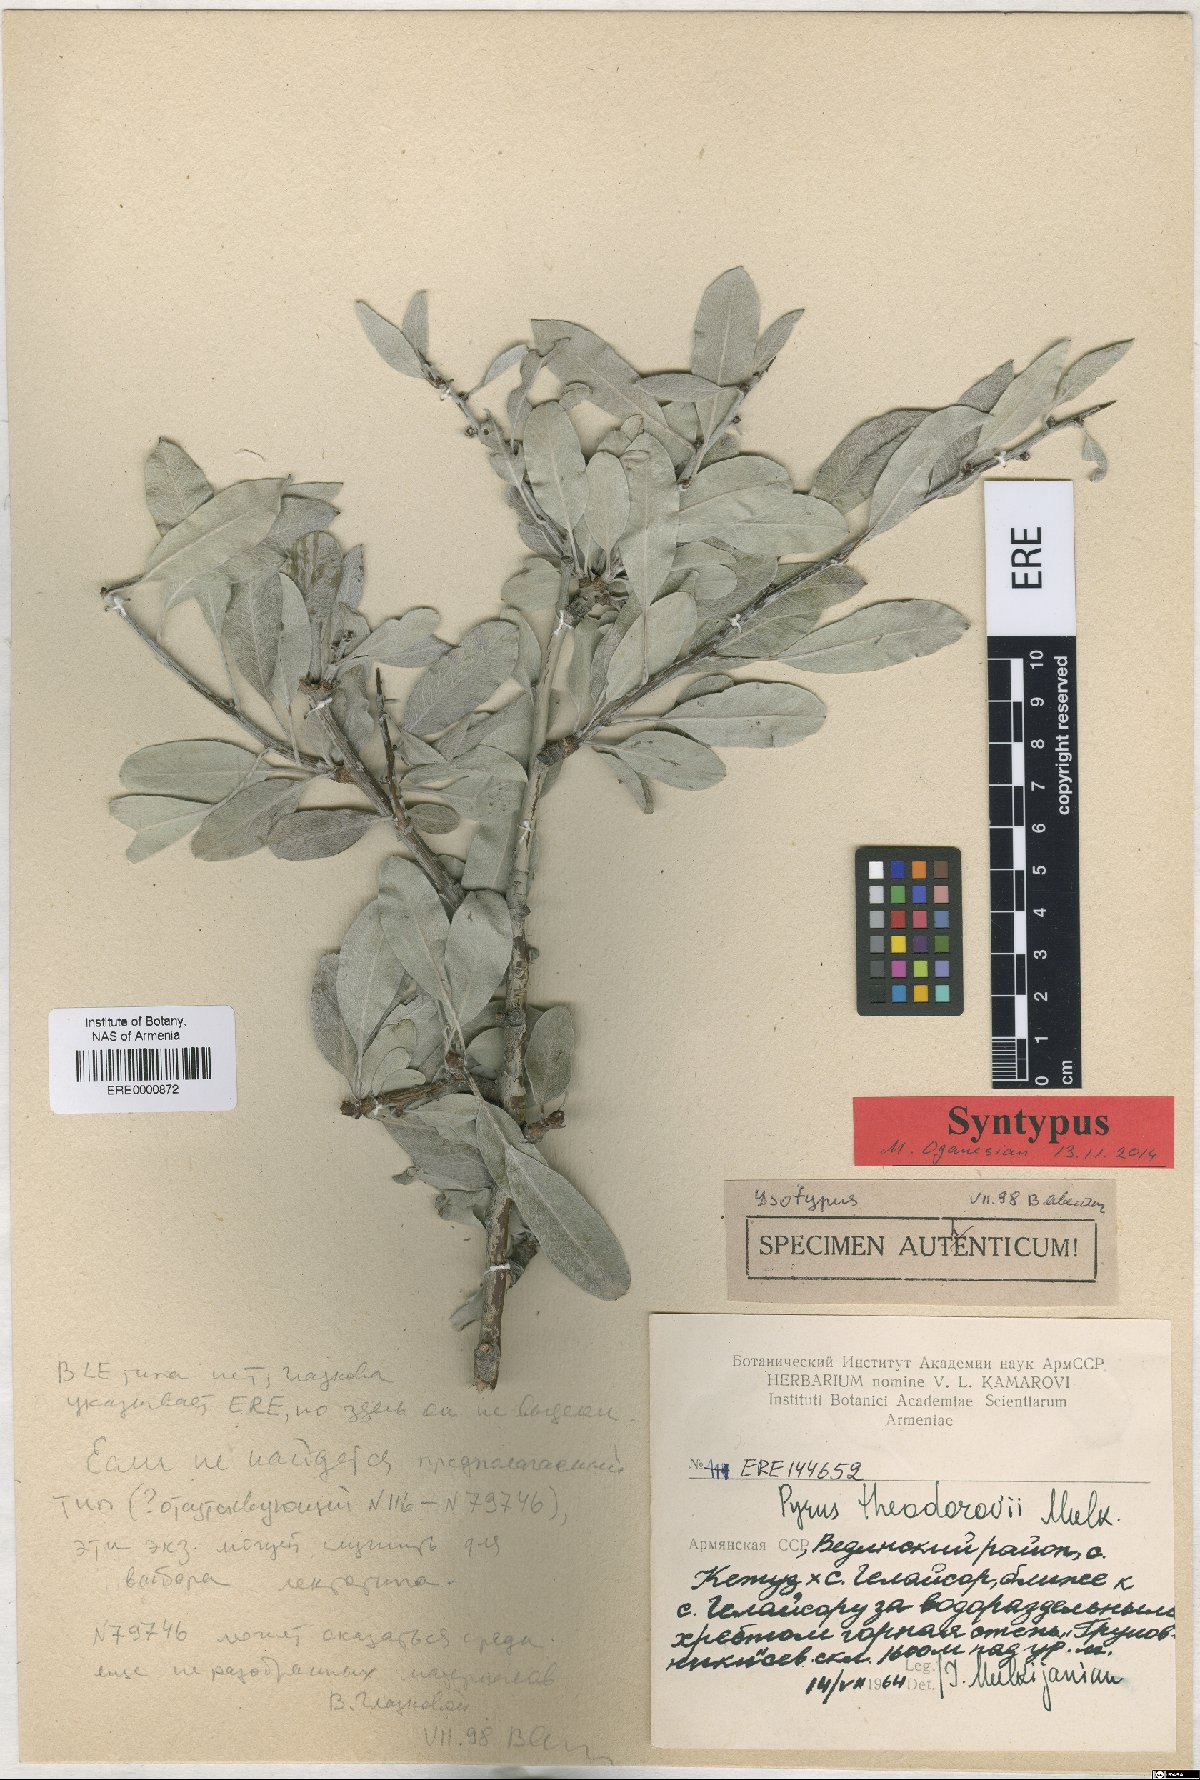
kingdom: Plantae
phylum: Tracheophyta
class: Magnoliopsida
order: Rosales
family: Rosaceae
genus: Pyrus
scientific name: Pyrus theodorovii
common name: Teodorov's pear
